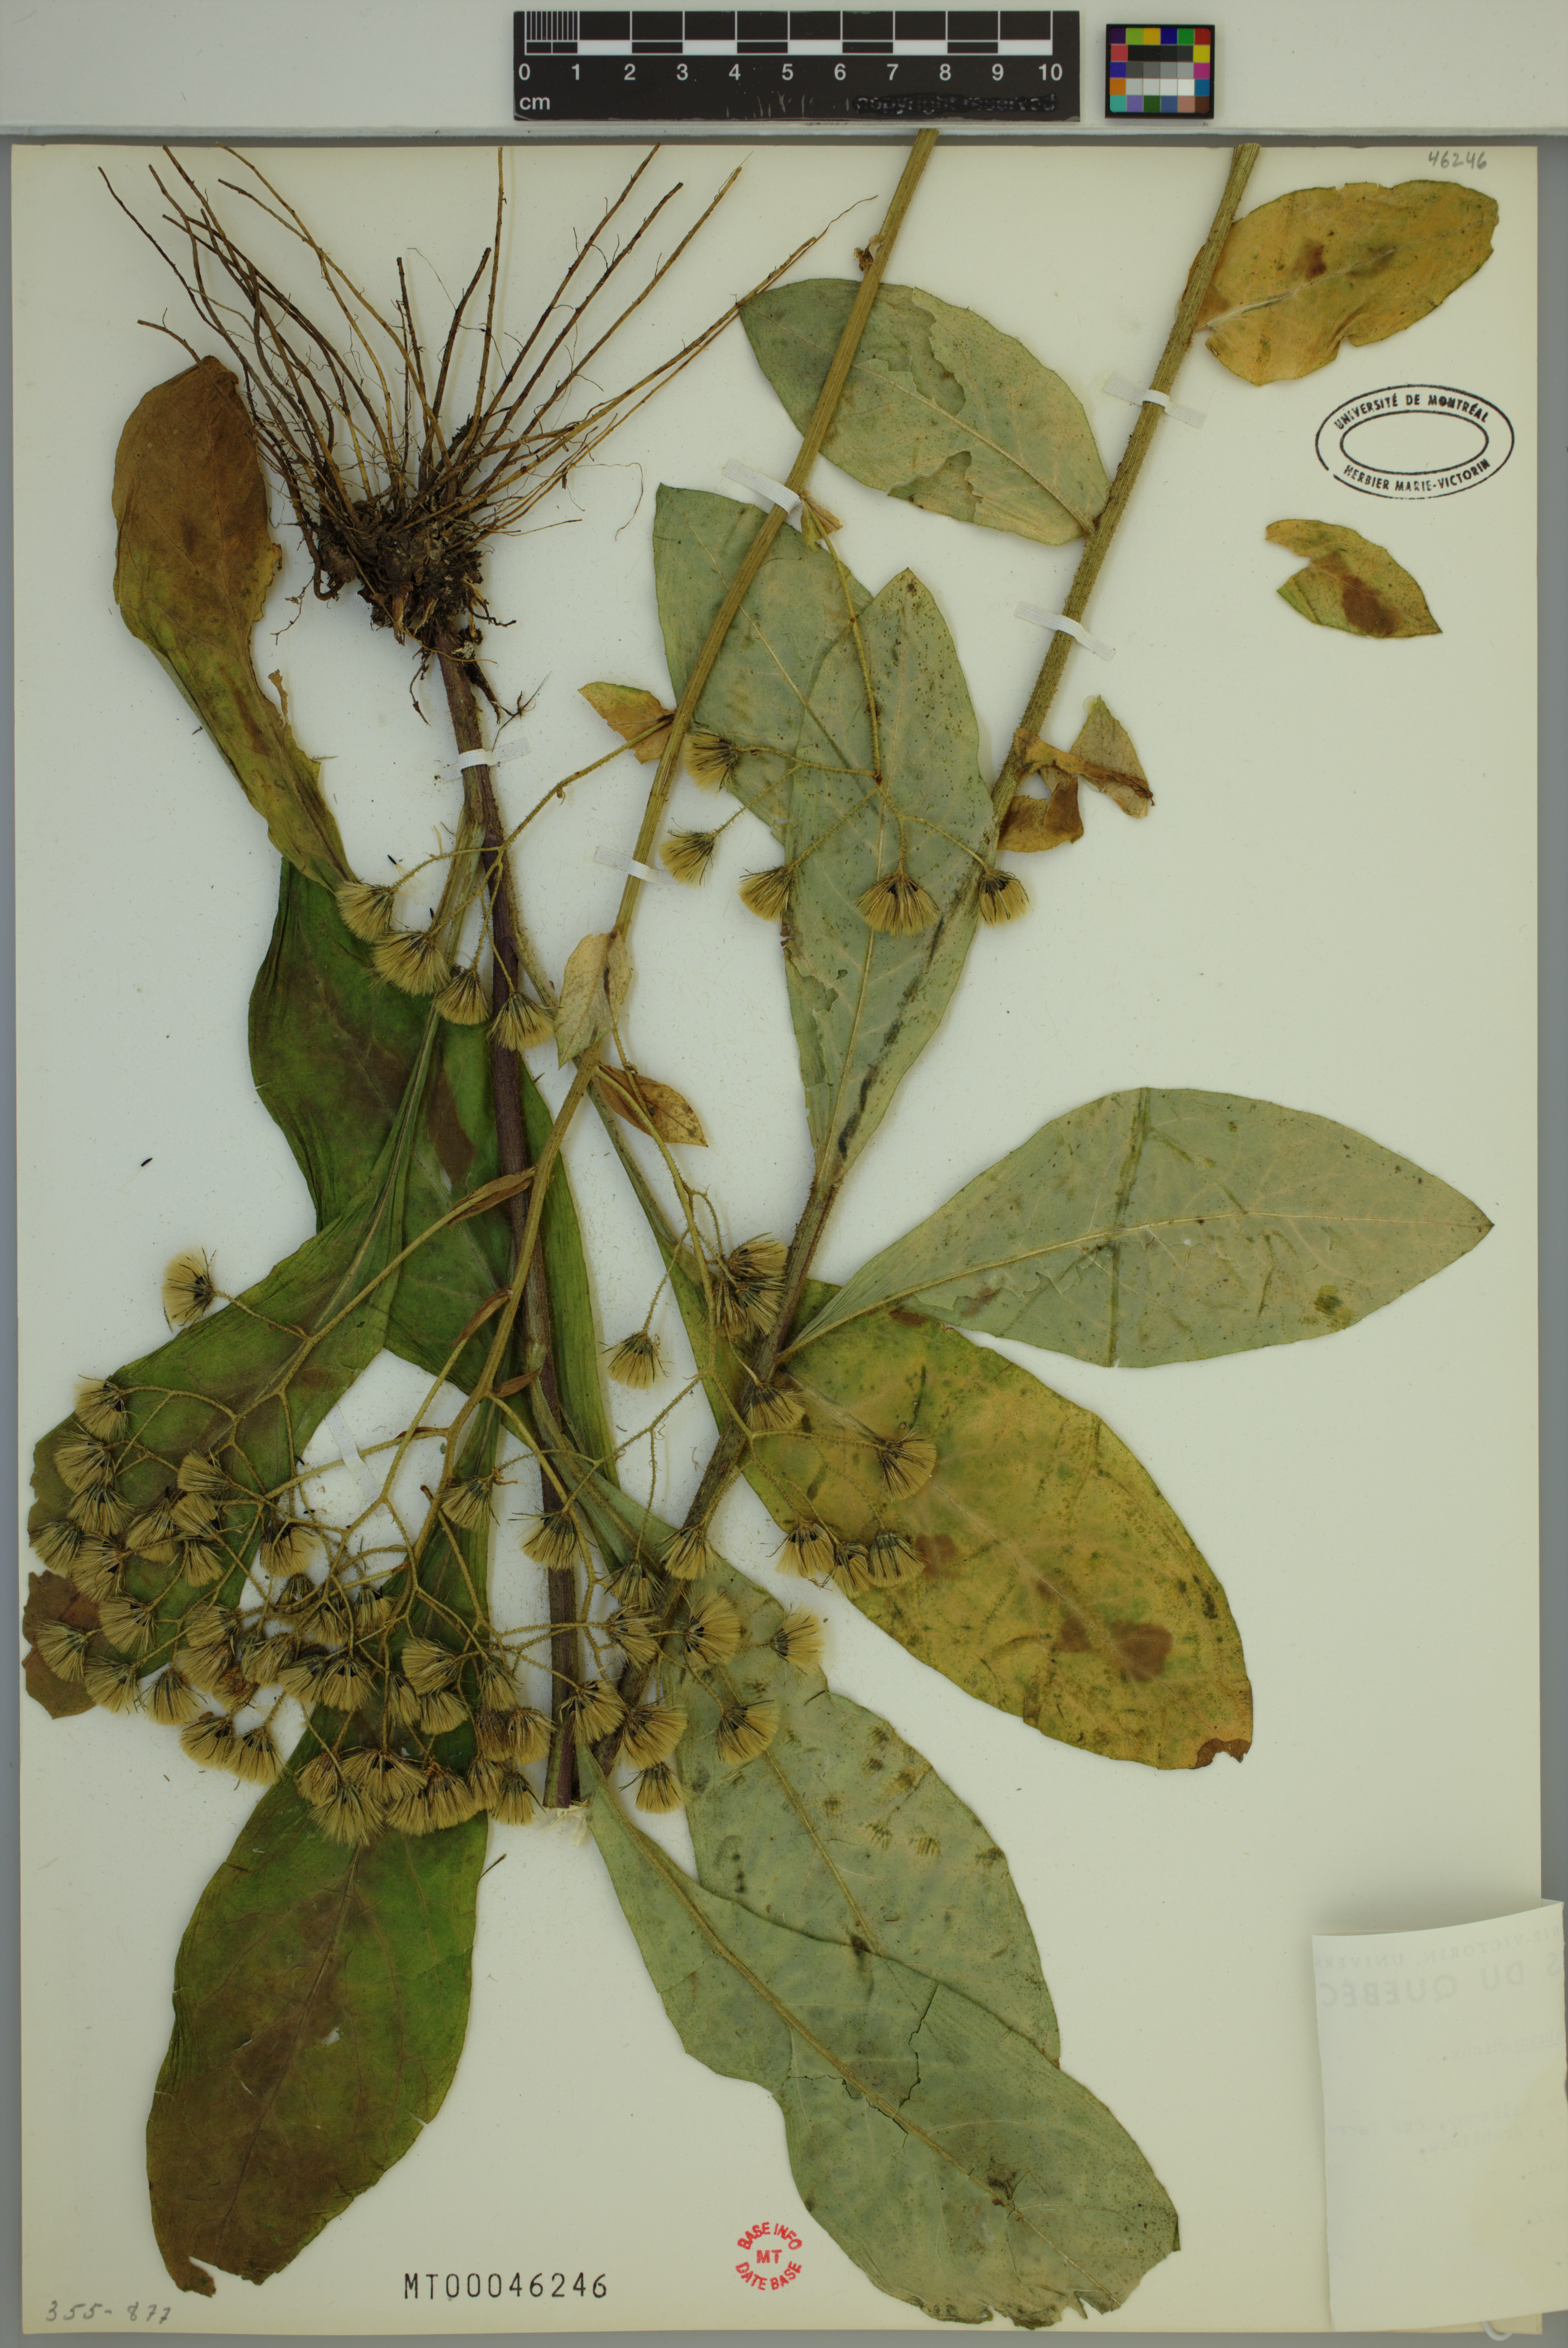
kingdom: Plantae
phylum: Tracheophyta
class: Magnoliopsida
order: Asterales
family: Asteraceae
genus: Hieracium
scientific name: Hieracium scabrum
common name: Rough hawkweed
